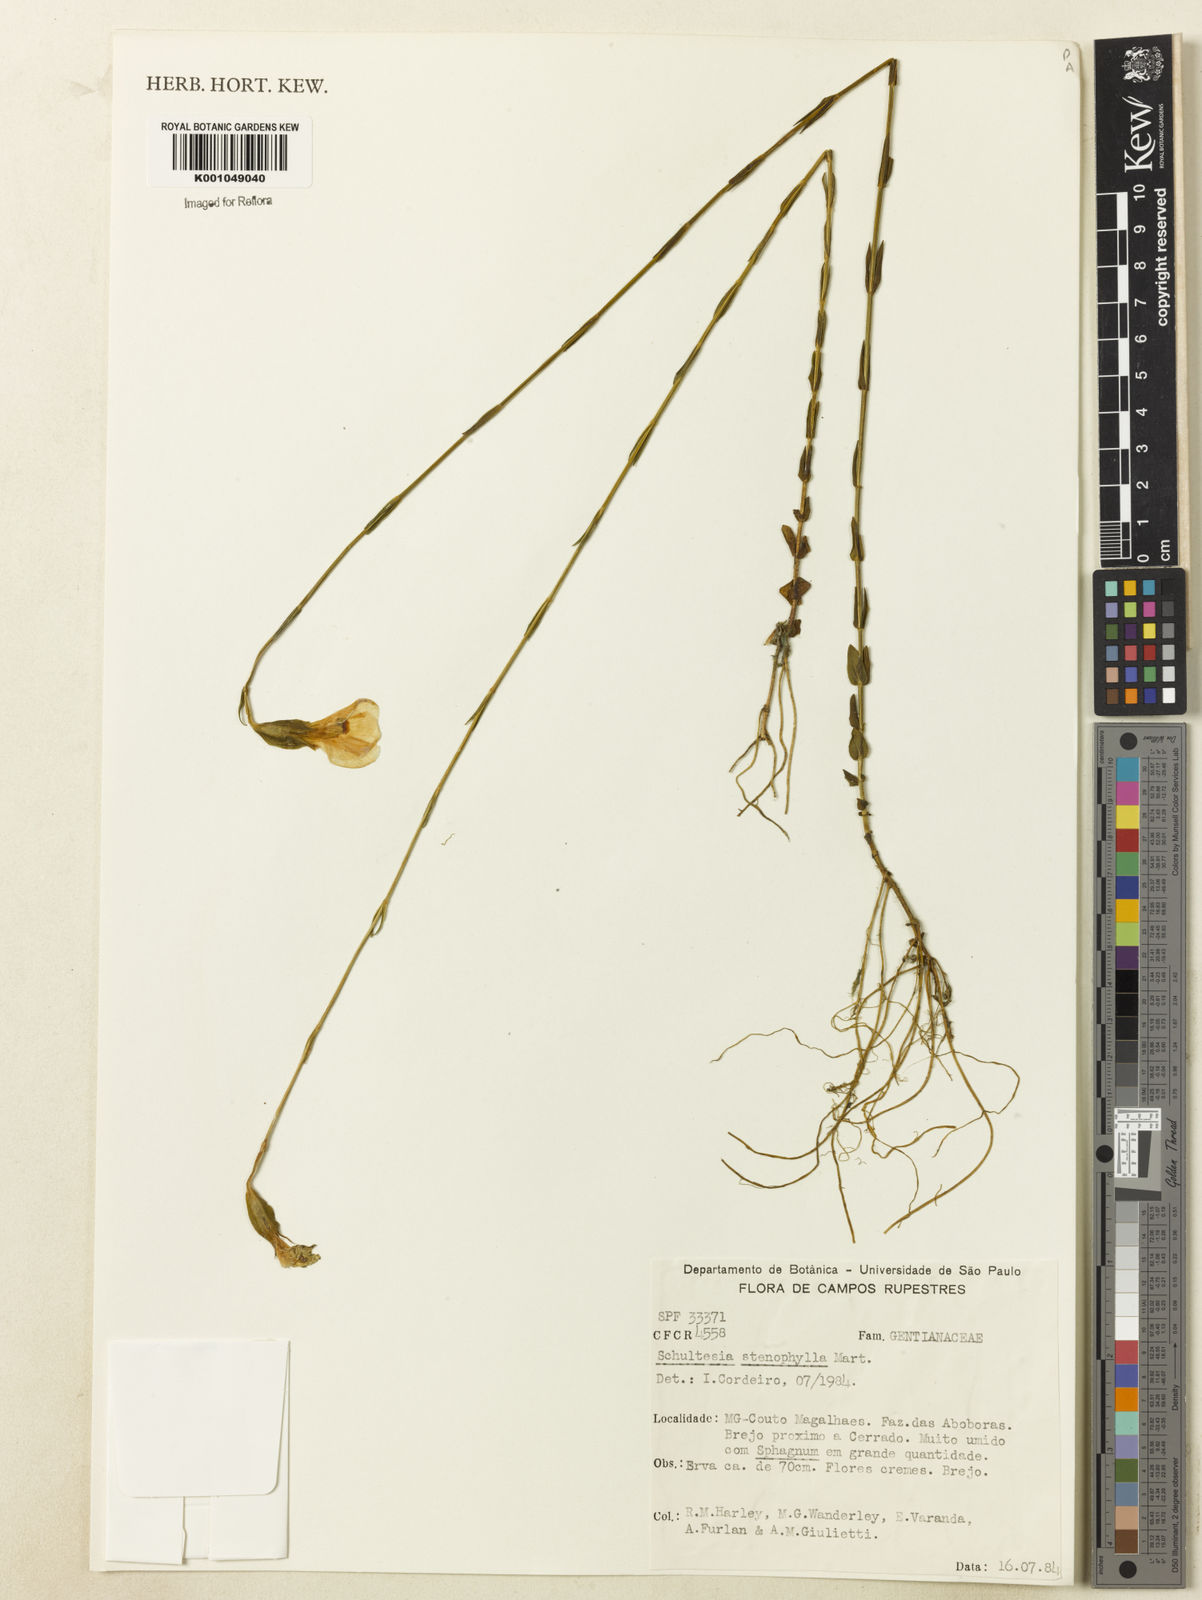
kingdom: Plantae
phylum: Tracheophyta
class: Magnoliopsida
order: Gentianales
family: Gentianaceae
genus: Schultesia
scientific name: Schultesia guianensis
